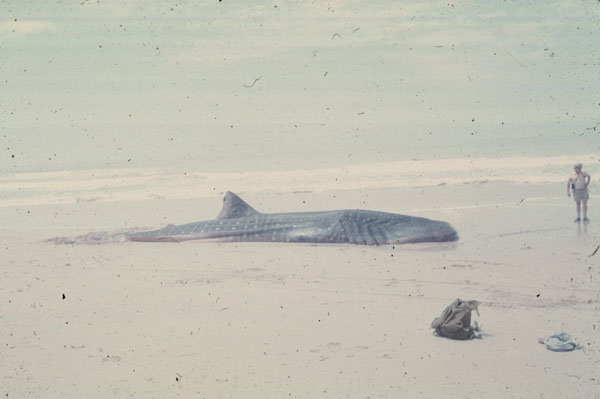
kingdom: Animalia
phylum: Chordata
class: Elasmobranchii
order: Orectolobiformes
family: Rhincodontidae
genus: Rhincodon
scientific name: Rhincodon typus
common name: Whale shark
